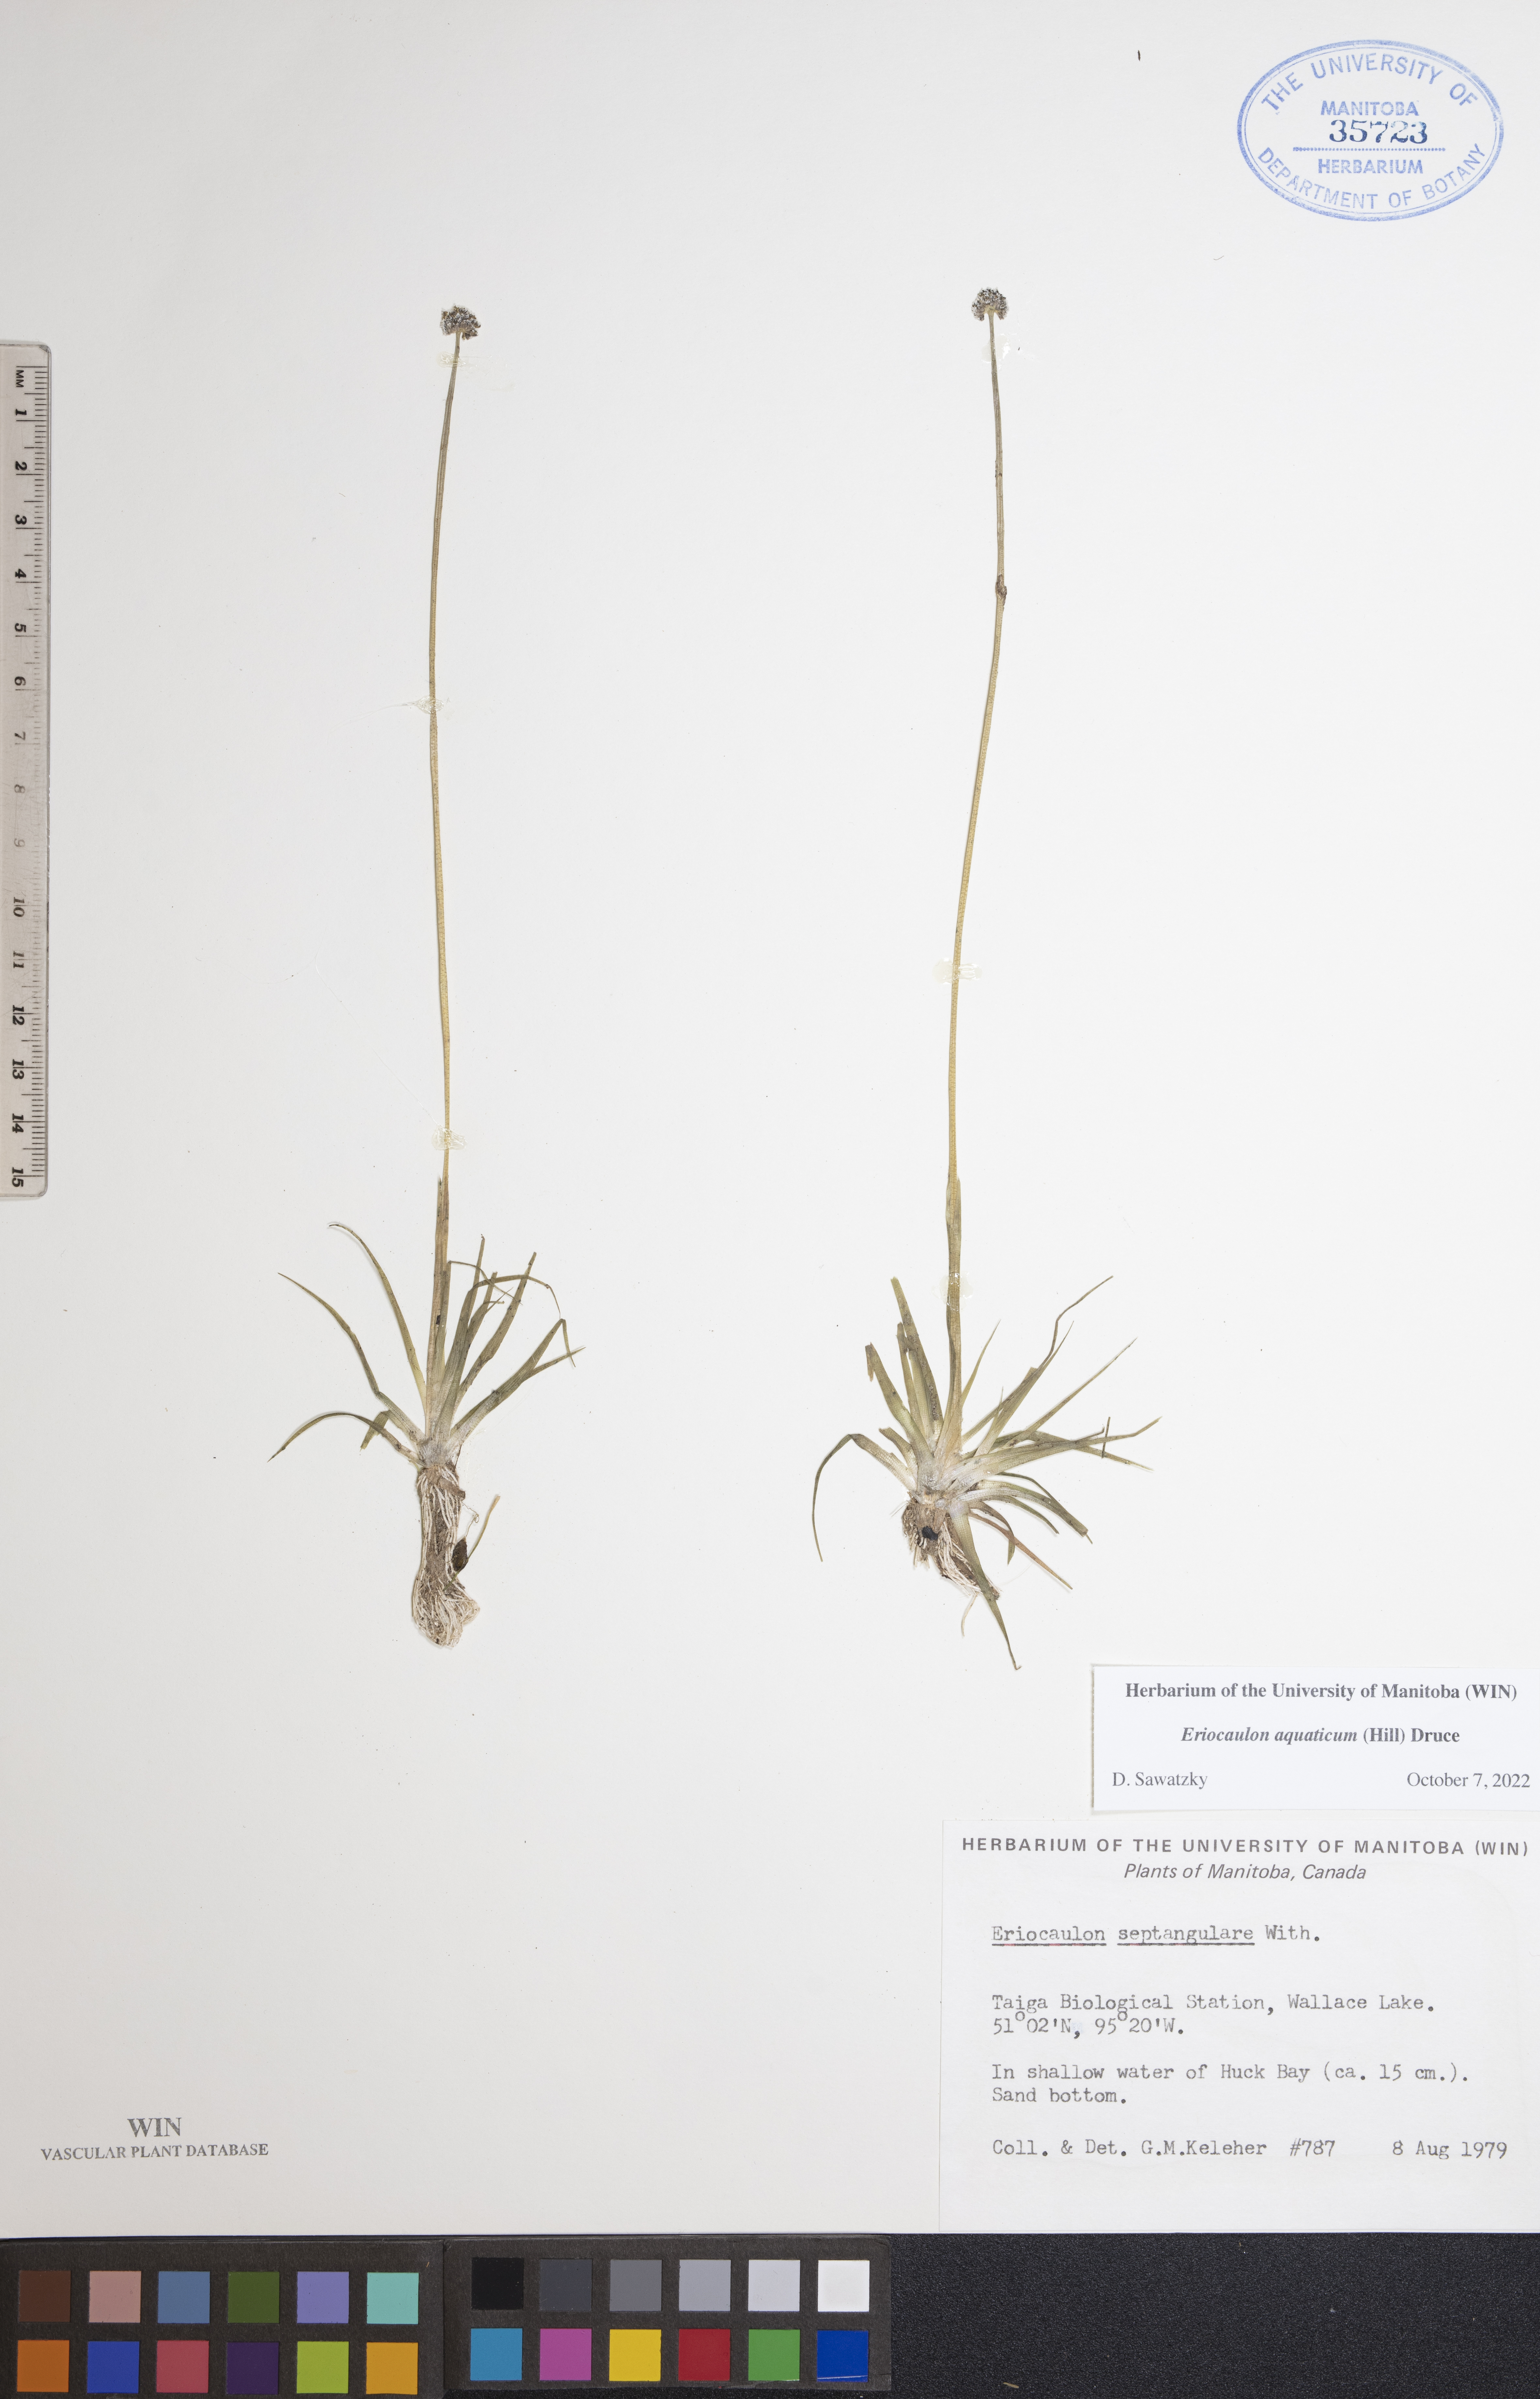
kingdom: Plantae
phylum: Tracheophyta
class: Liliopsida
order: Poales
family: Eriocaulaceae
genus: Eriocaulon
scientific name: Eriocaulon aquaticum
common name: Pipewort
